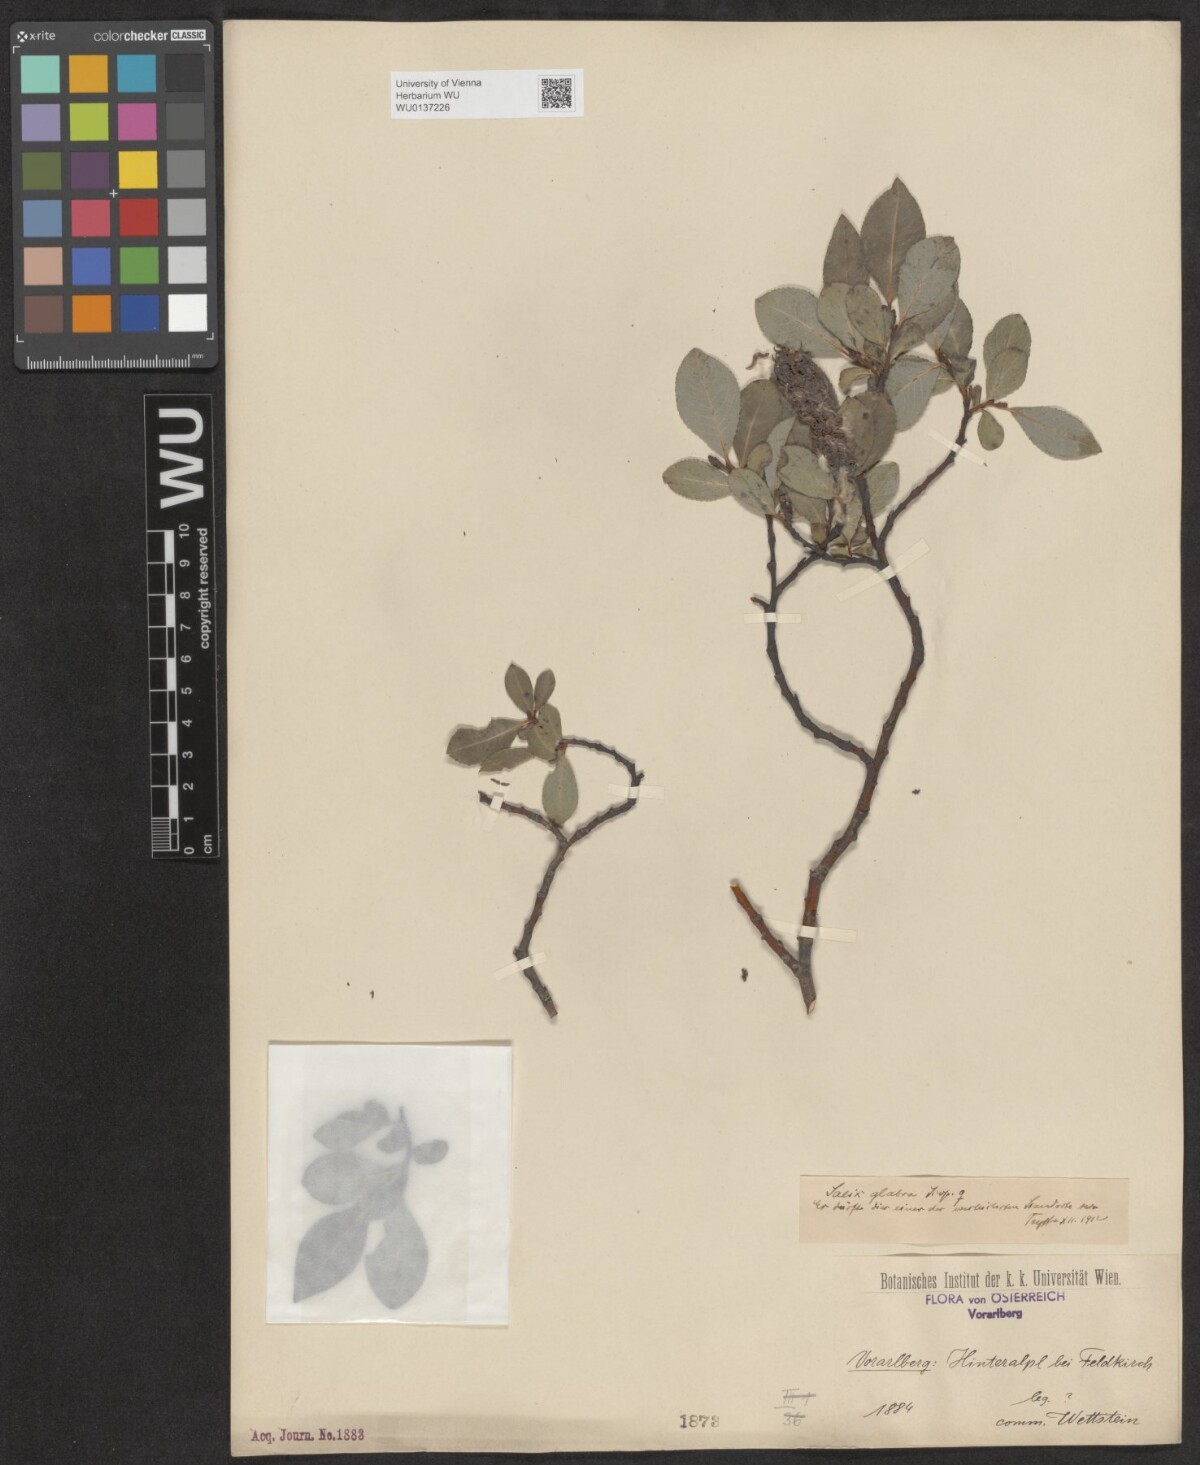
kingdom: Plantae
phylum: Tracheophyta
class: Magnoliopsida
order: Malpighiales
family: Salicaceae
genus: Salix
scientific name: Salix glabra
